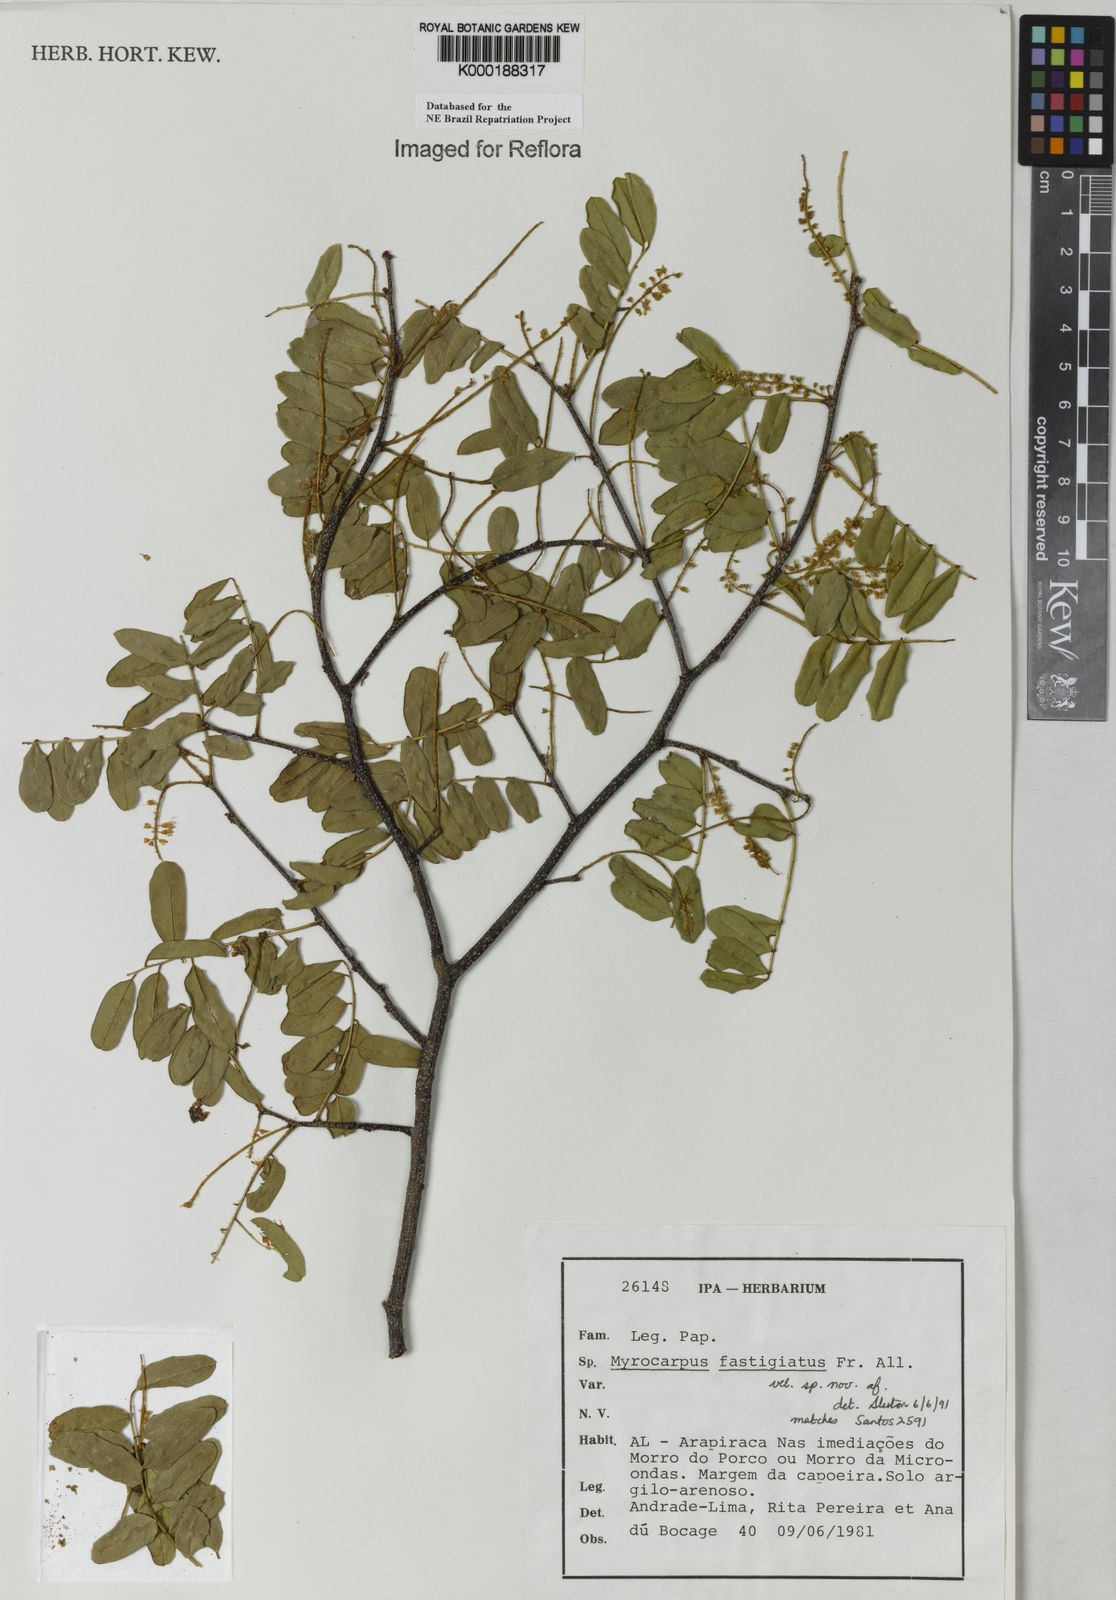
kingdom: Plantae
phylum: Tracheophyta
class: Magnoliopsida
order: Fabales
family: Fabaceae
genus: Myrocarpus
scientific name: Myrocarpus fastigiatus
